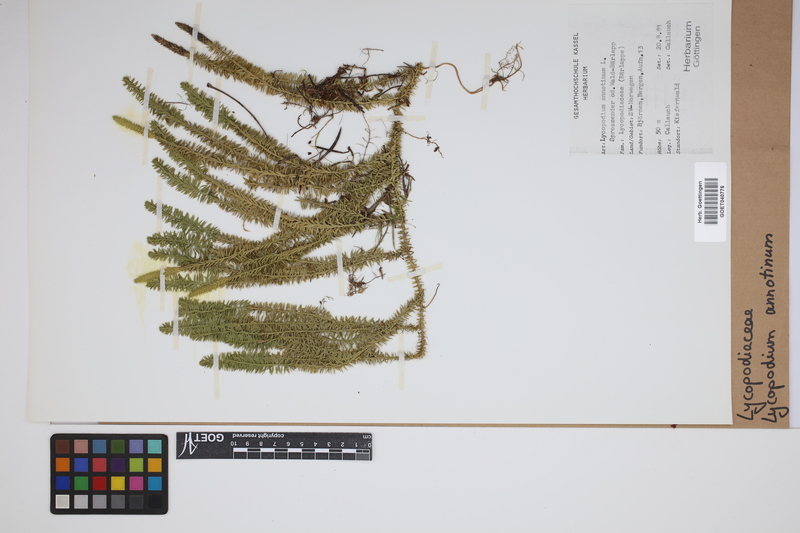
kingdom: Plantae
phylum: Tracheophyta
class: Lycopodiopsida
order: Lycopodiales
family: Lycopodiaceae
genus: Spinulum
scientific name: Spinulum annotinum
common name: Interrupted club-moss
